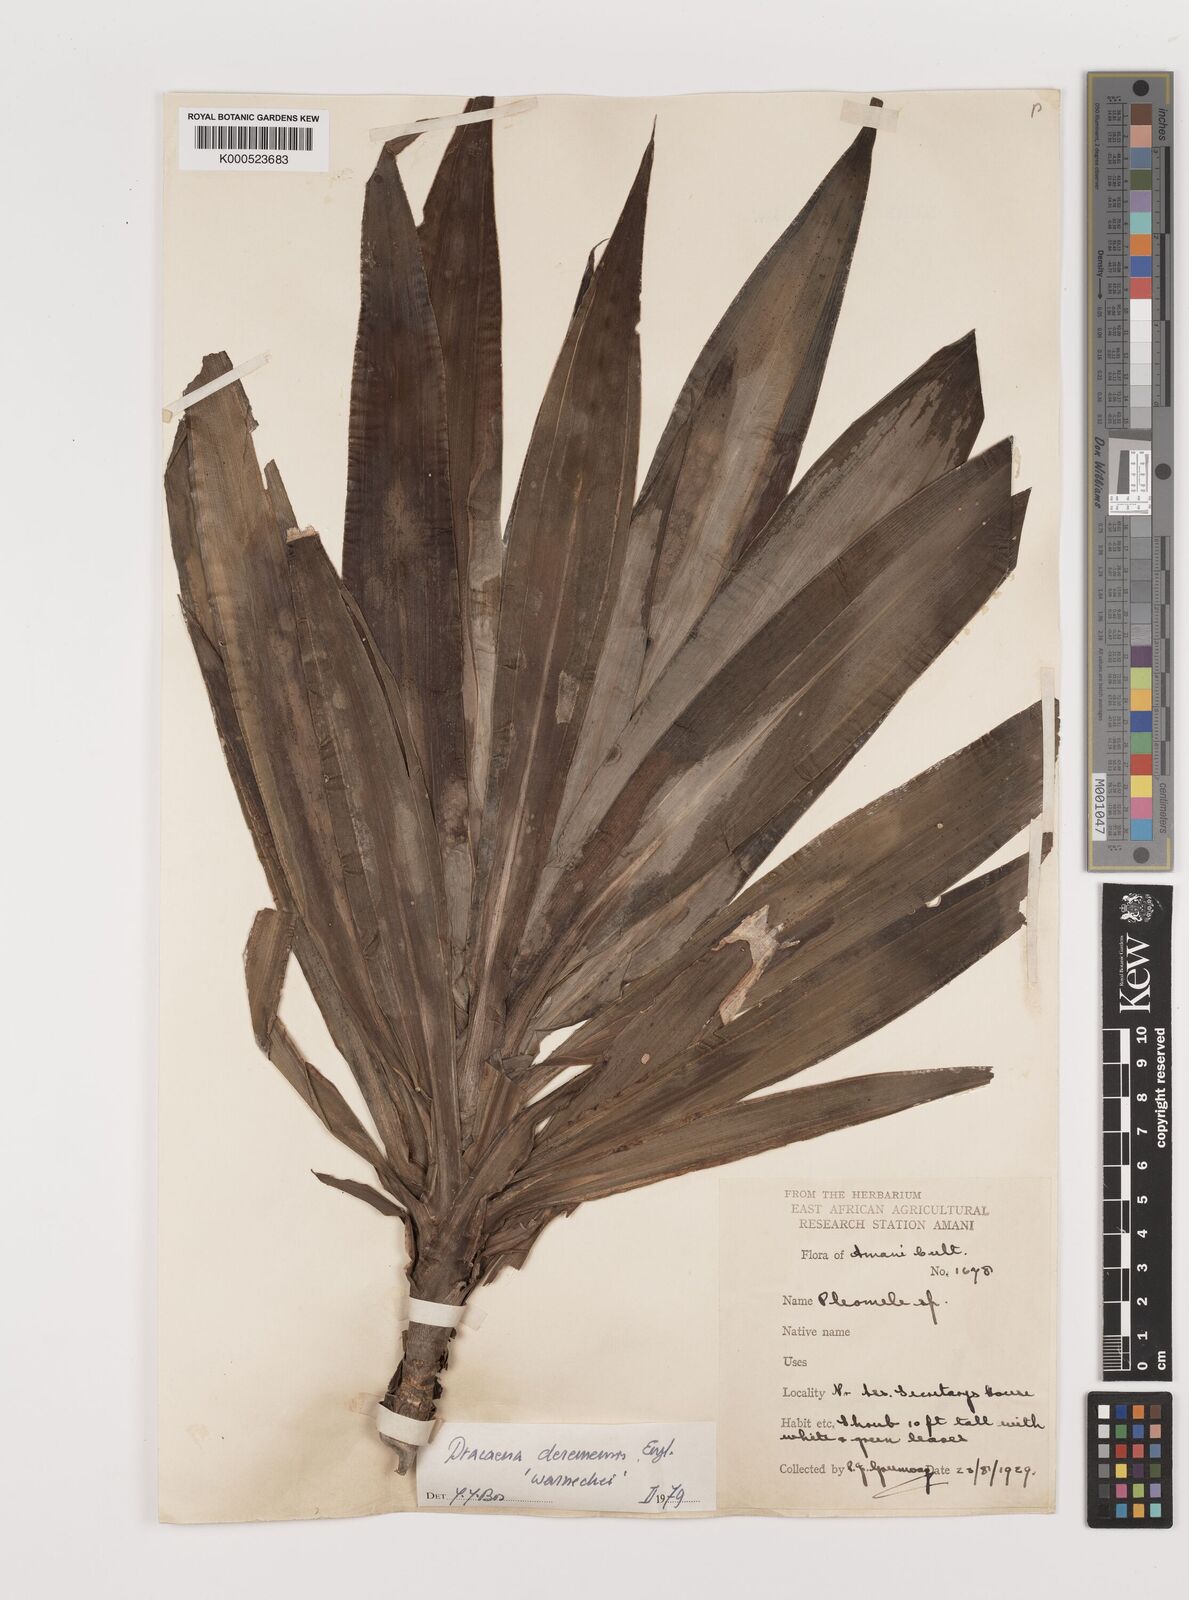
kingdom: Plantae
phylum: Tracheophyta
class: Liliopsida
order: Asparagales
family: Asparagaceae
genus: Dracaena
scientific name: Dracaena fragrans
